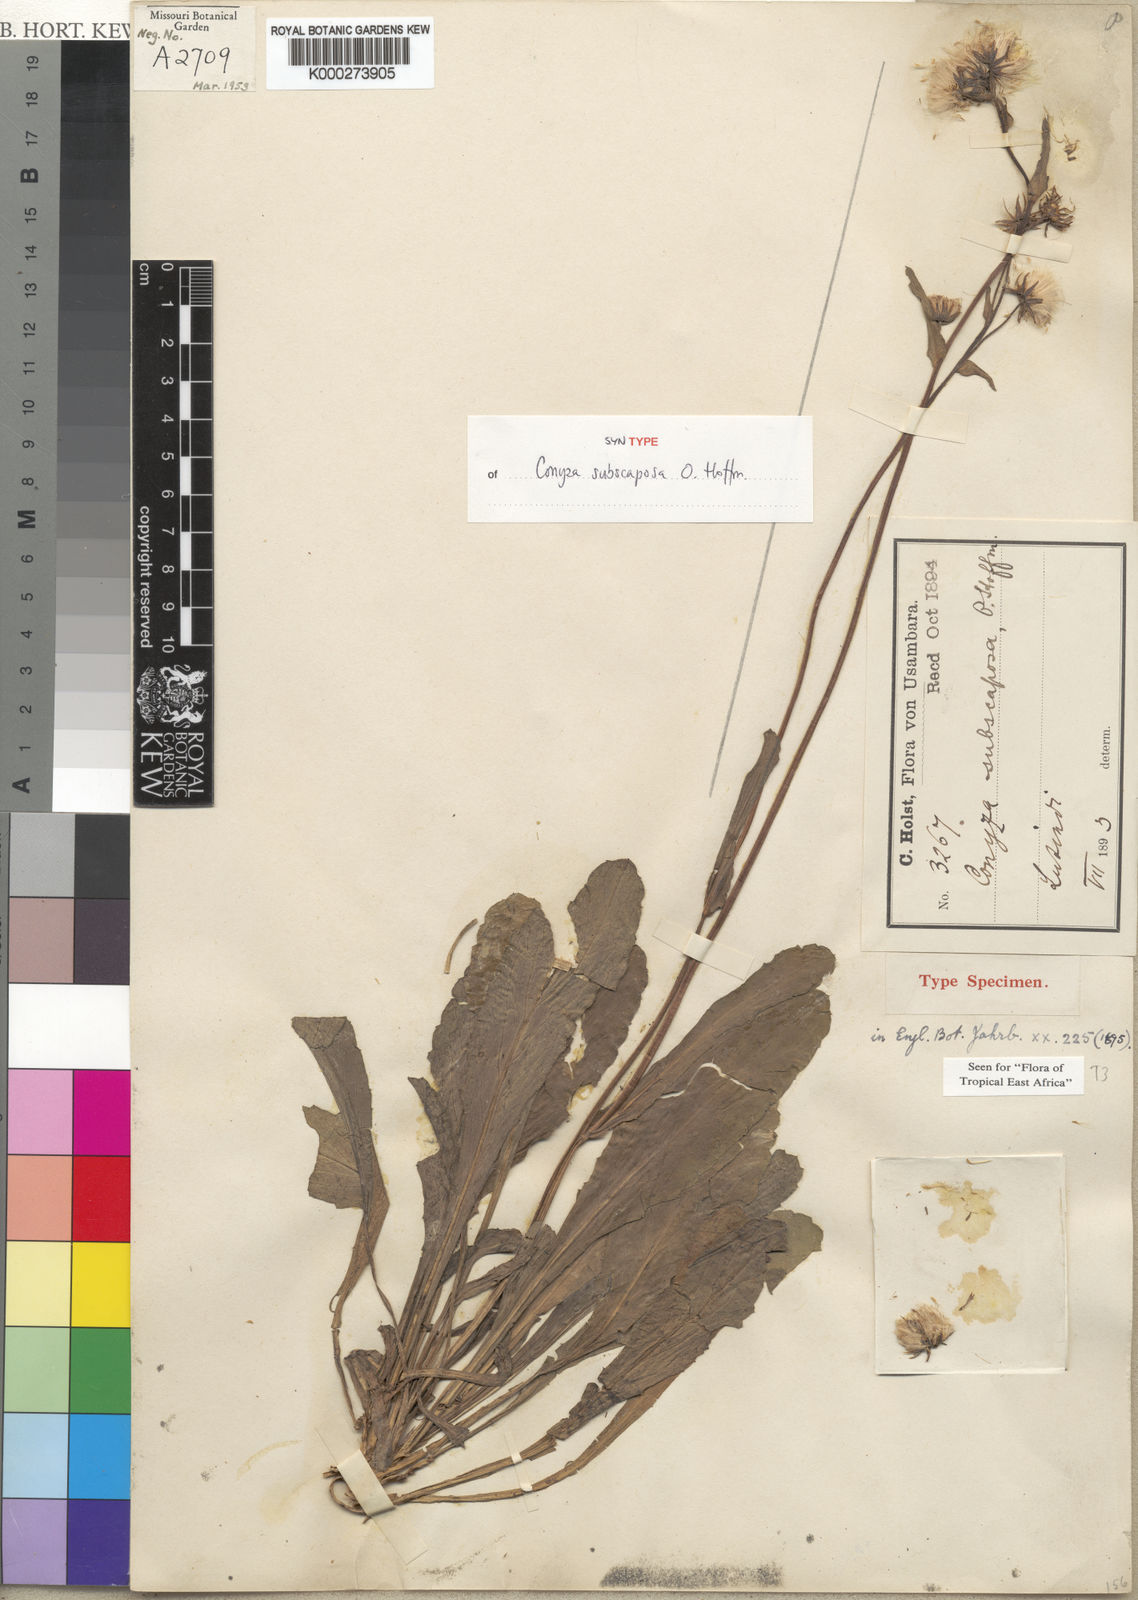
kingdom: Plantae
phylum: Tracheophyta
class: Magnoliopsida
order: Asterales
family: Asteraceae
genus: Eschenbachia
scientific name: Eschenbachia subscaposa
